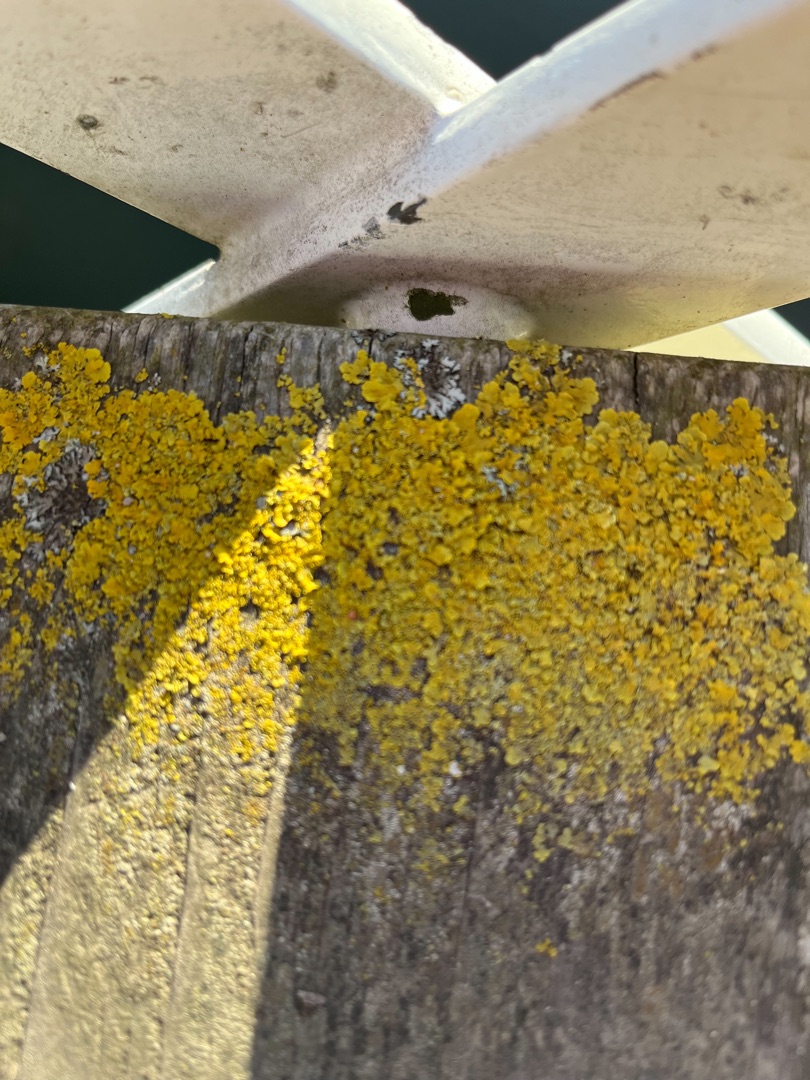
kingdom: Fungi
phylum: Ascomycota
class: Lecanoromycetes
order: Teloschistales
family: Teloschistaceae
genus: Xanthoria
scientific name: Xanthoria parietina
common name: Almindelig væggelav
